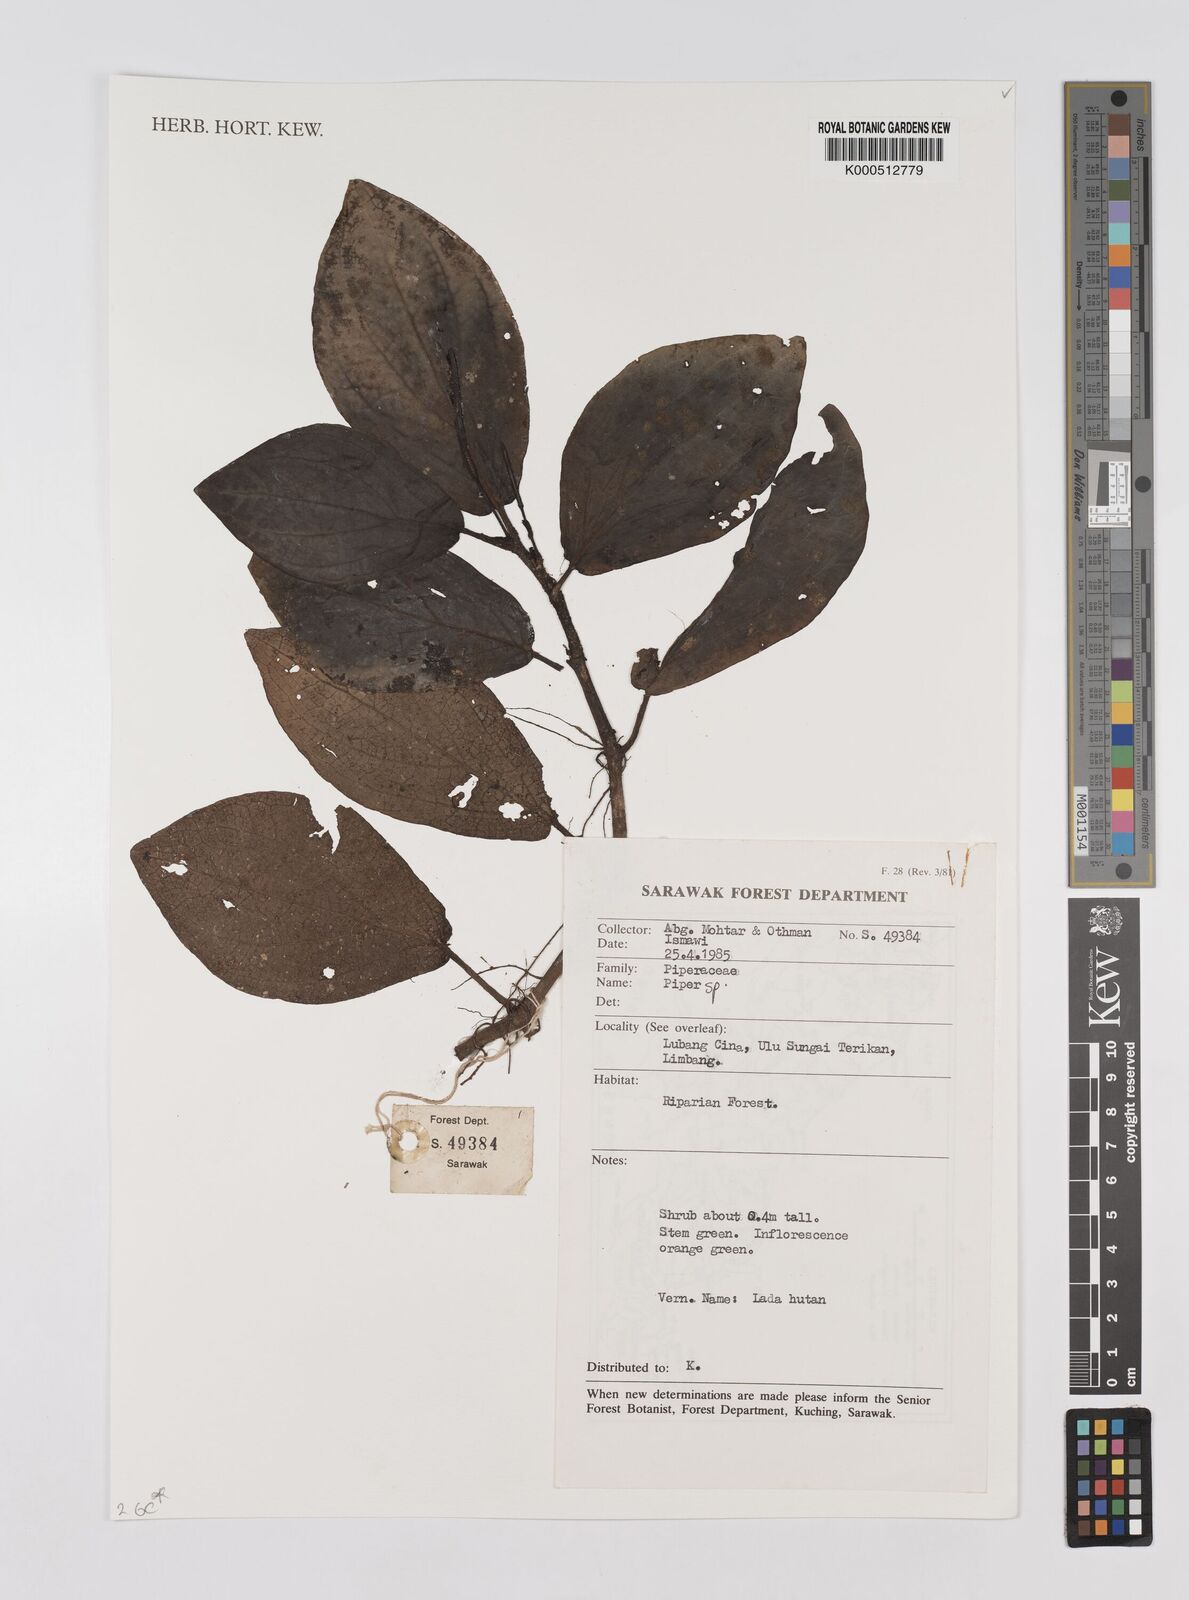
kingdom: Plantae
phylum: Tracheophyta
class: Magnoliopsida
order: Piperales
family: Piperaceae
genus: Piper
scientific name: Piper
